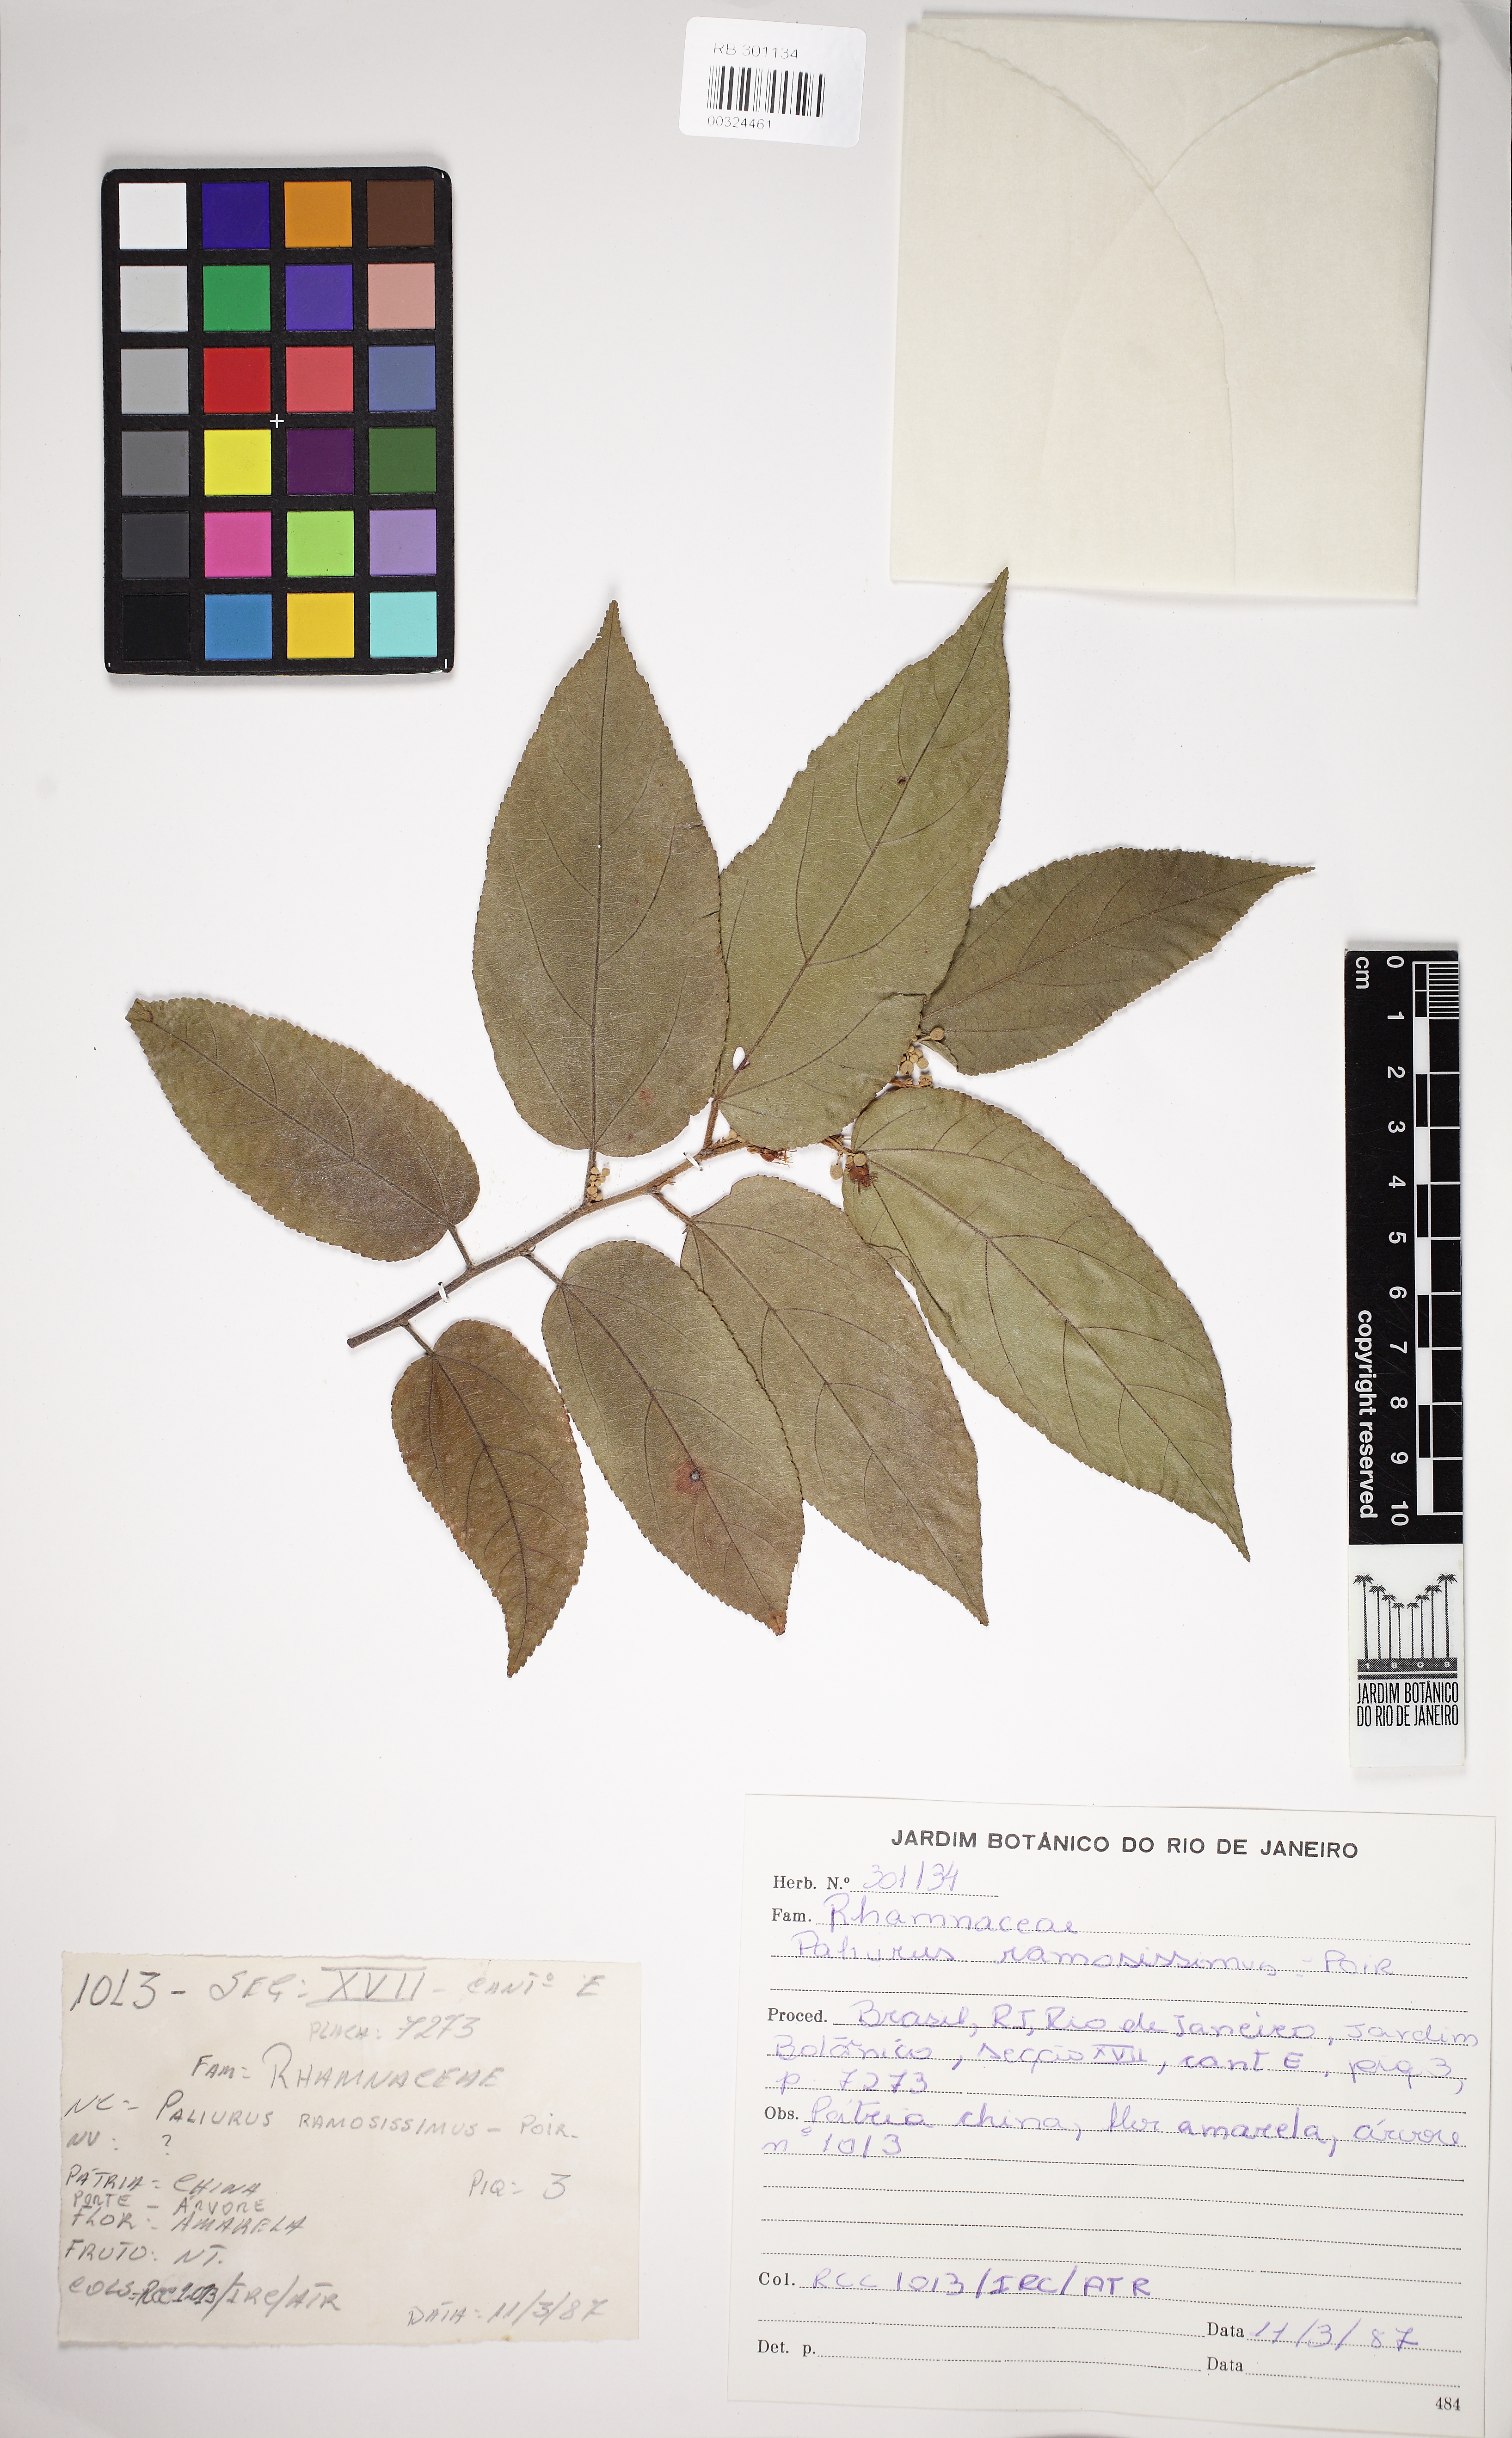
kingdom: Plantae
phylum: Tracheophyta
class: Magnoliopsida
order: Rosales
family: Rhamnaceae
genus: Paliurus
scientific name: Paliurus ramosissimus
